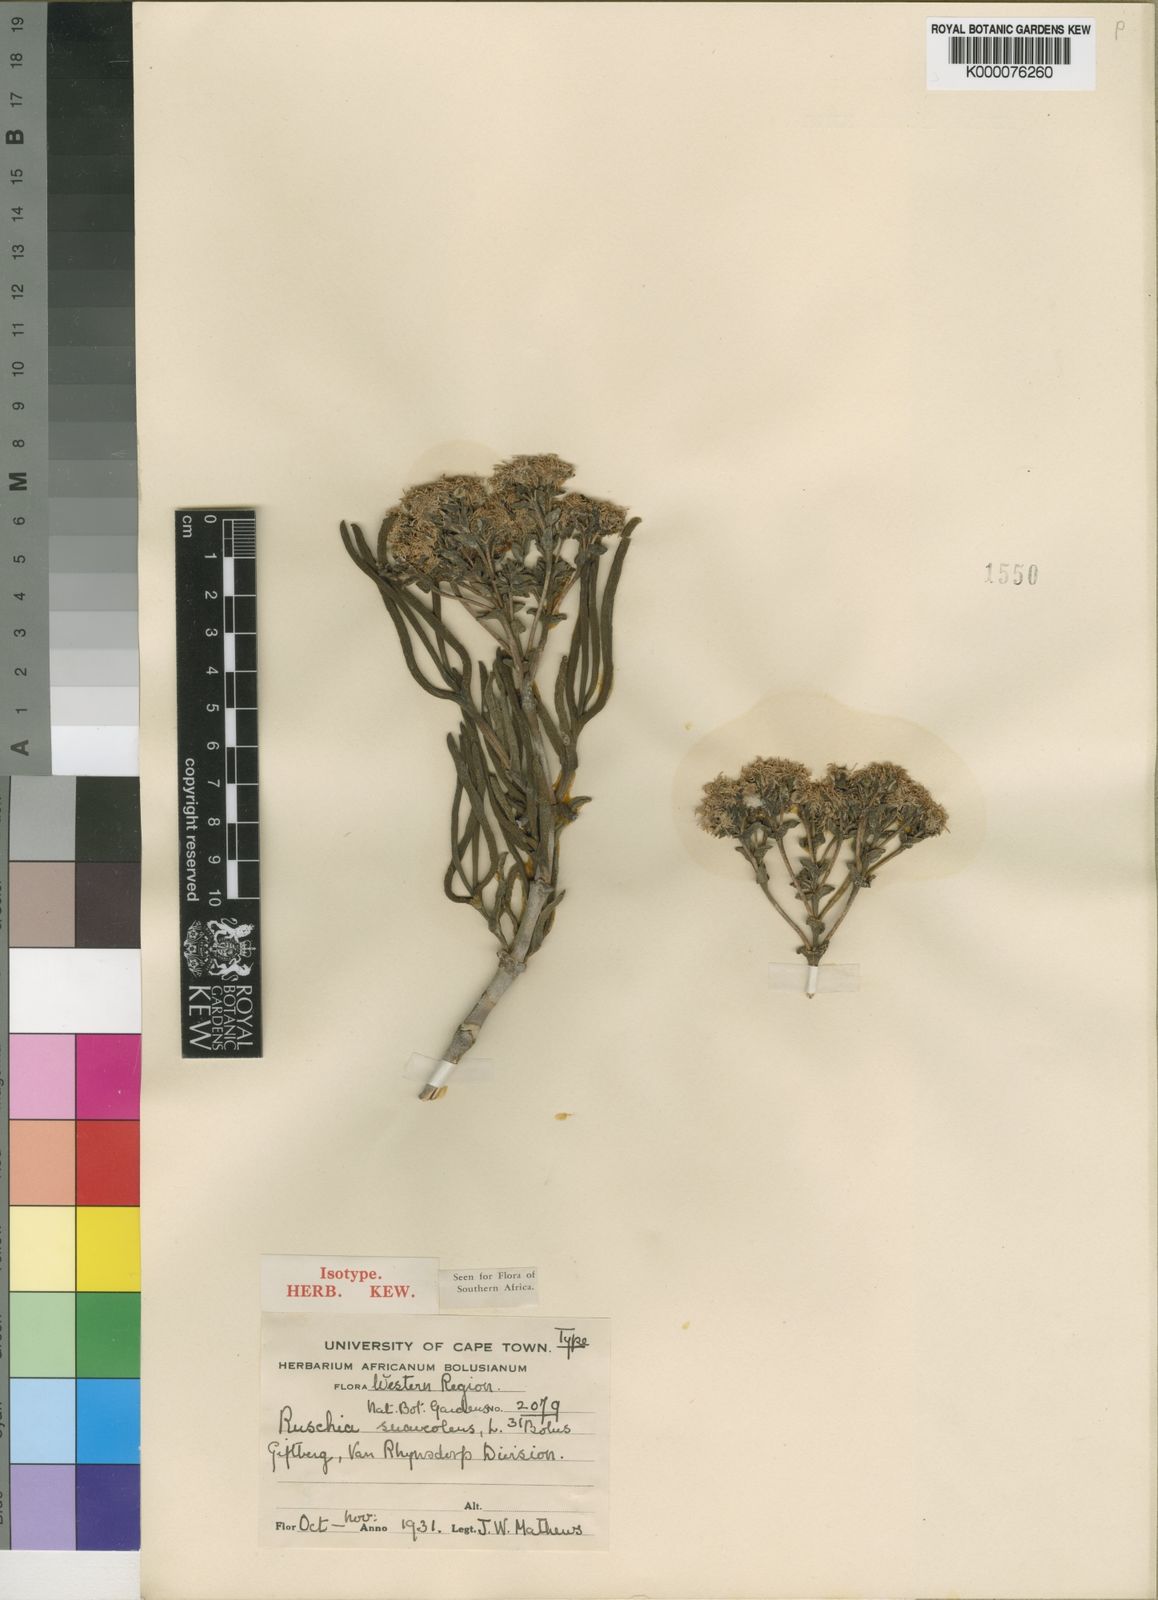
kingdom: Plantae
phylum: Tracheophyta
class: Magnoliopsida
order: Caryophyllales
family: Aizoaceae
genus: Ruschia
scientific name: Ruschia suaveolens
